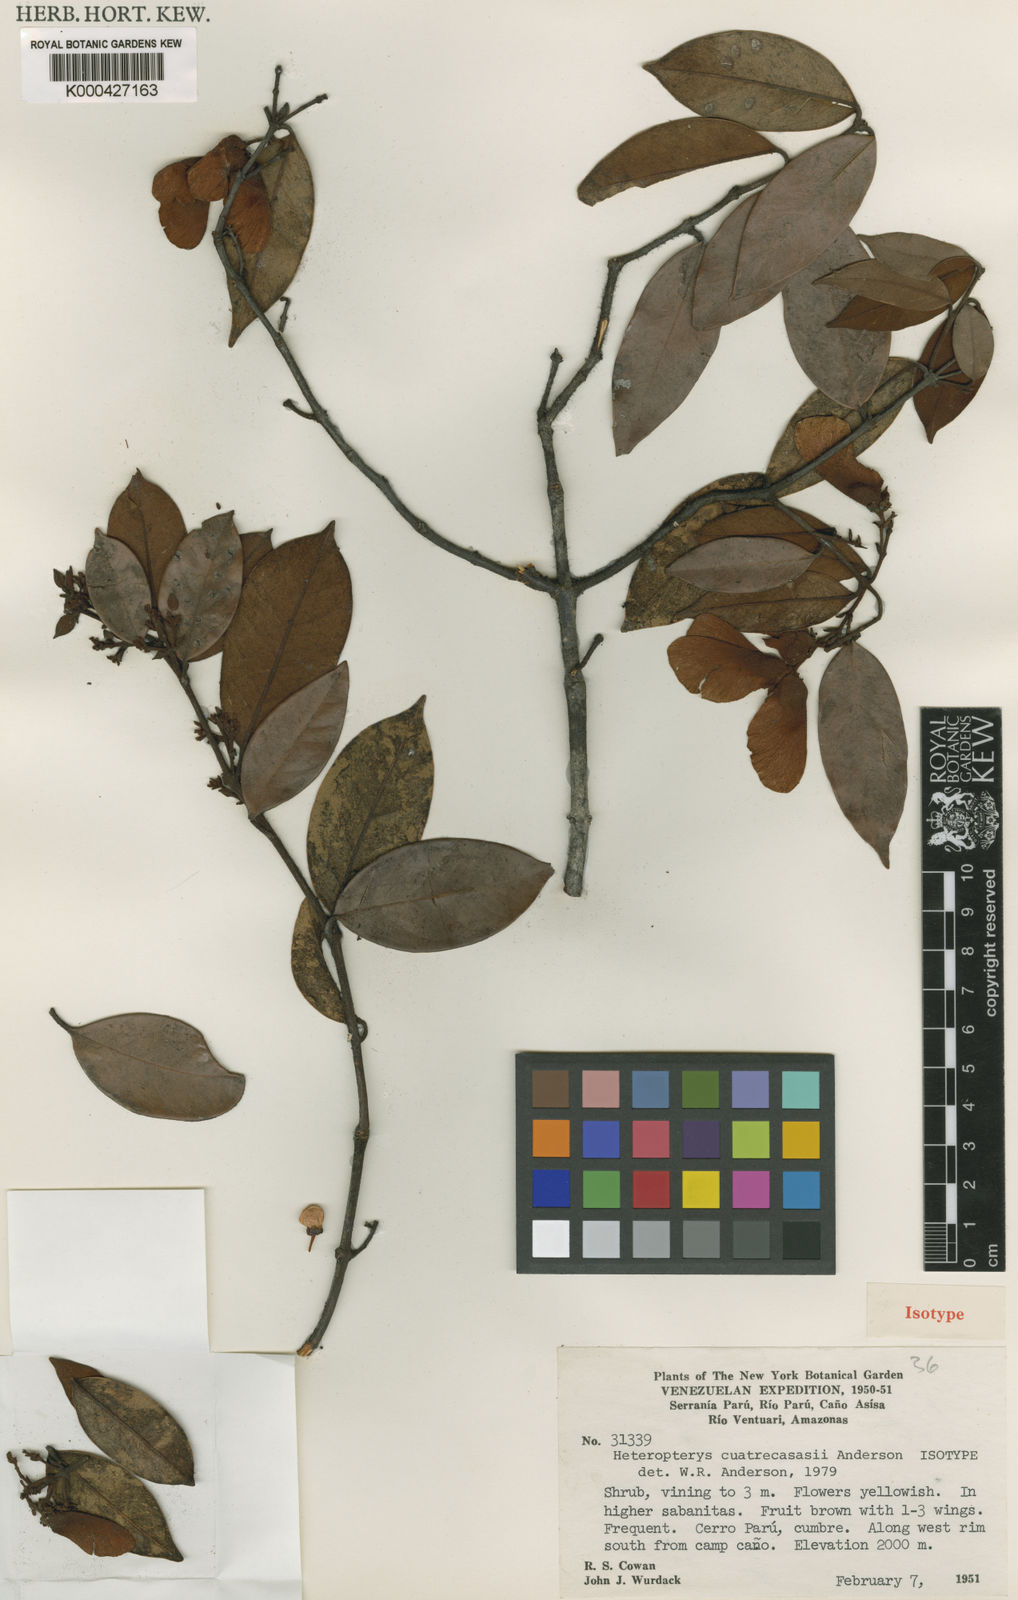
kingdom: Plantae
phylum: Tracheophyta
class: Magnoliopsida
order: Malpighiales
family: Malpighiaceae
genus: Heteropterys
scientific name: Heteropterys cuatrecasasii
